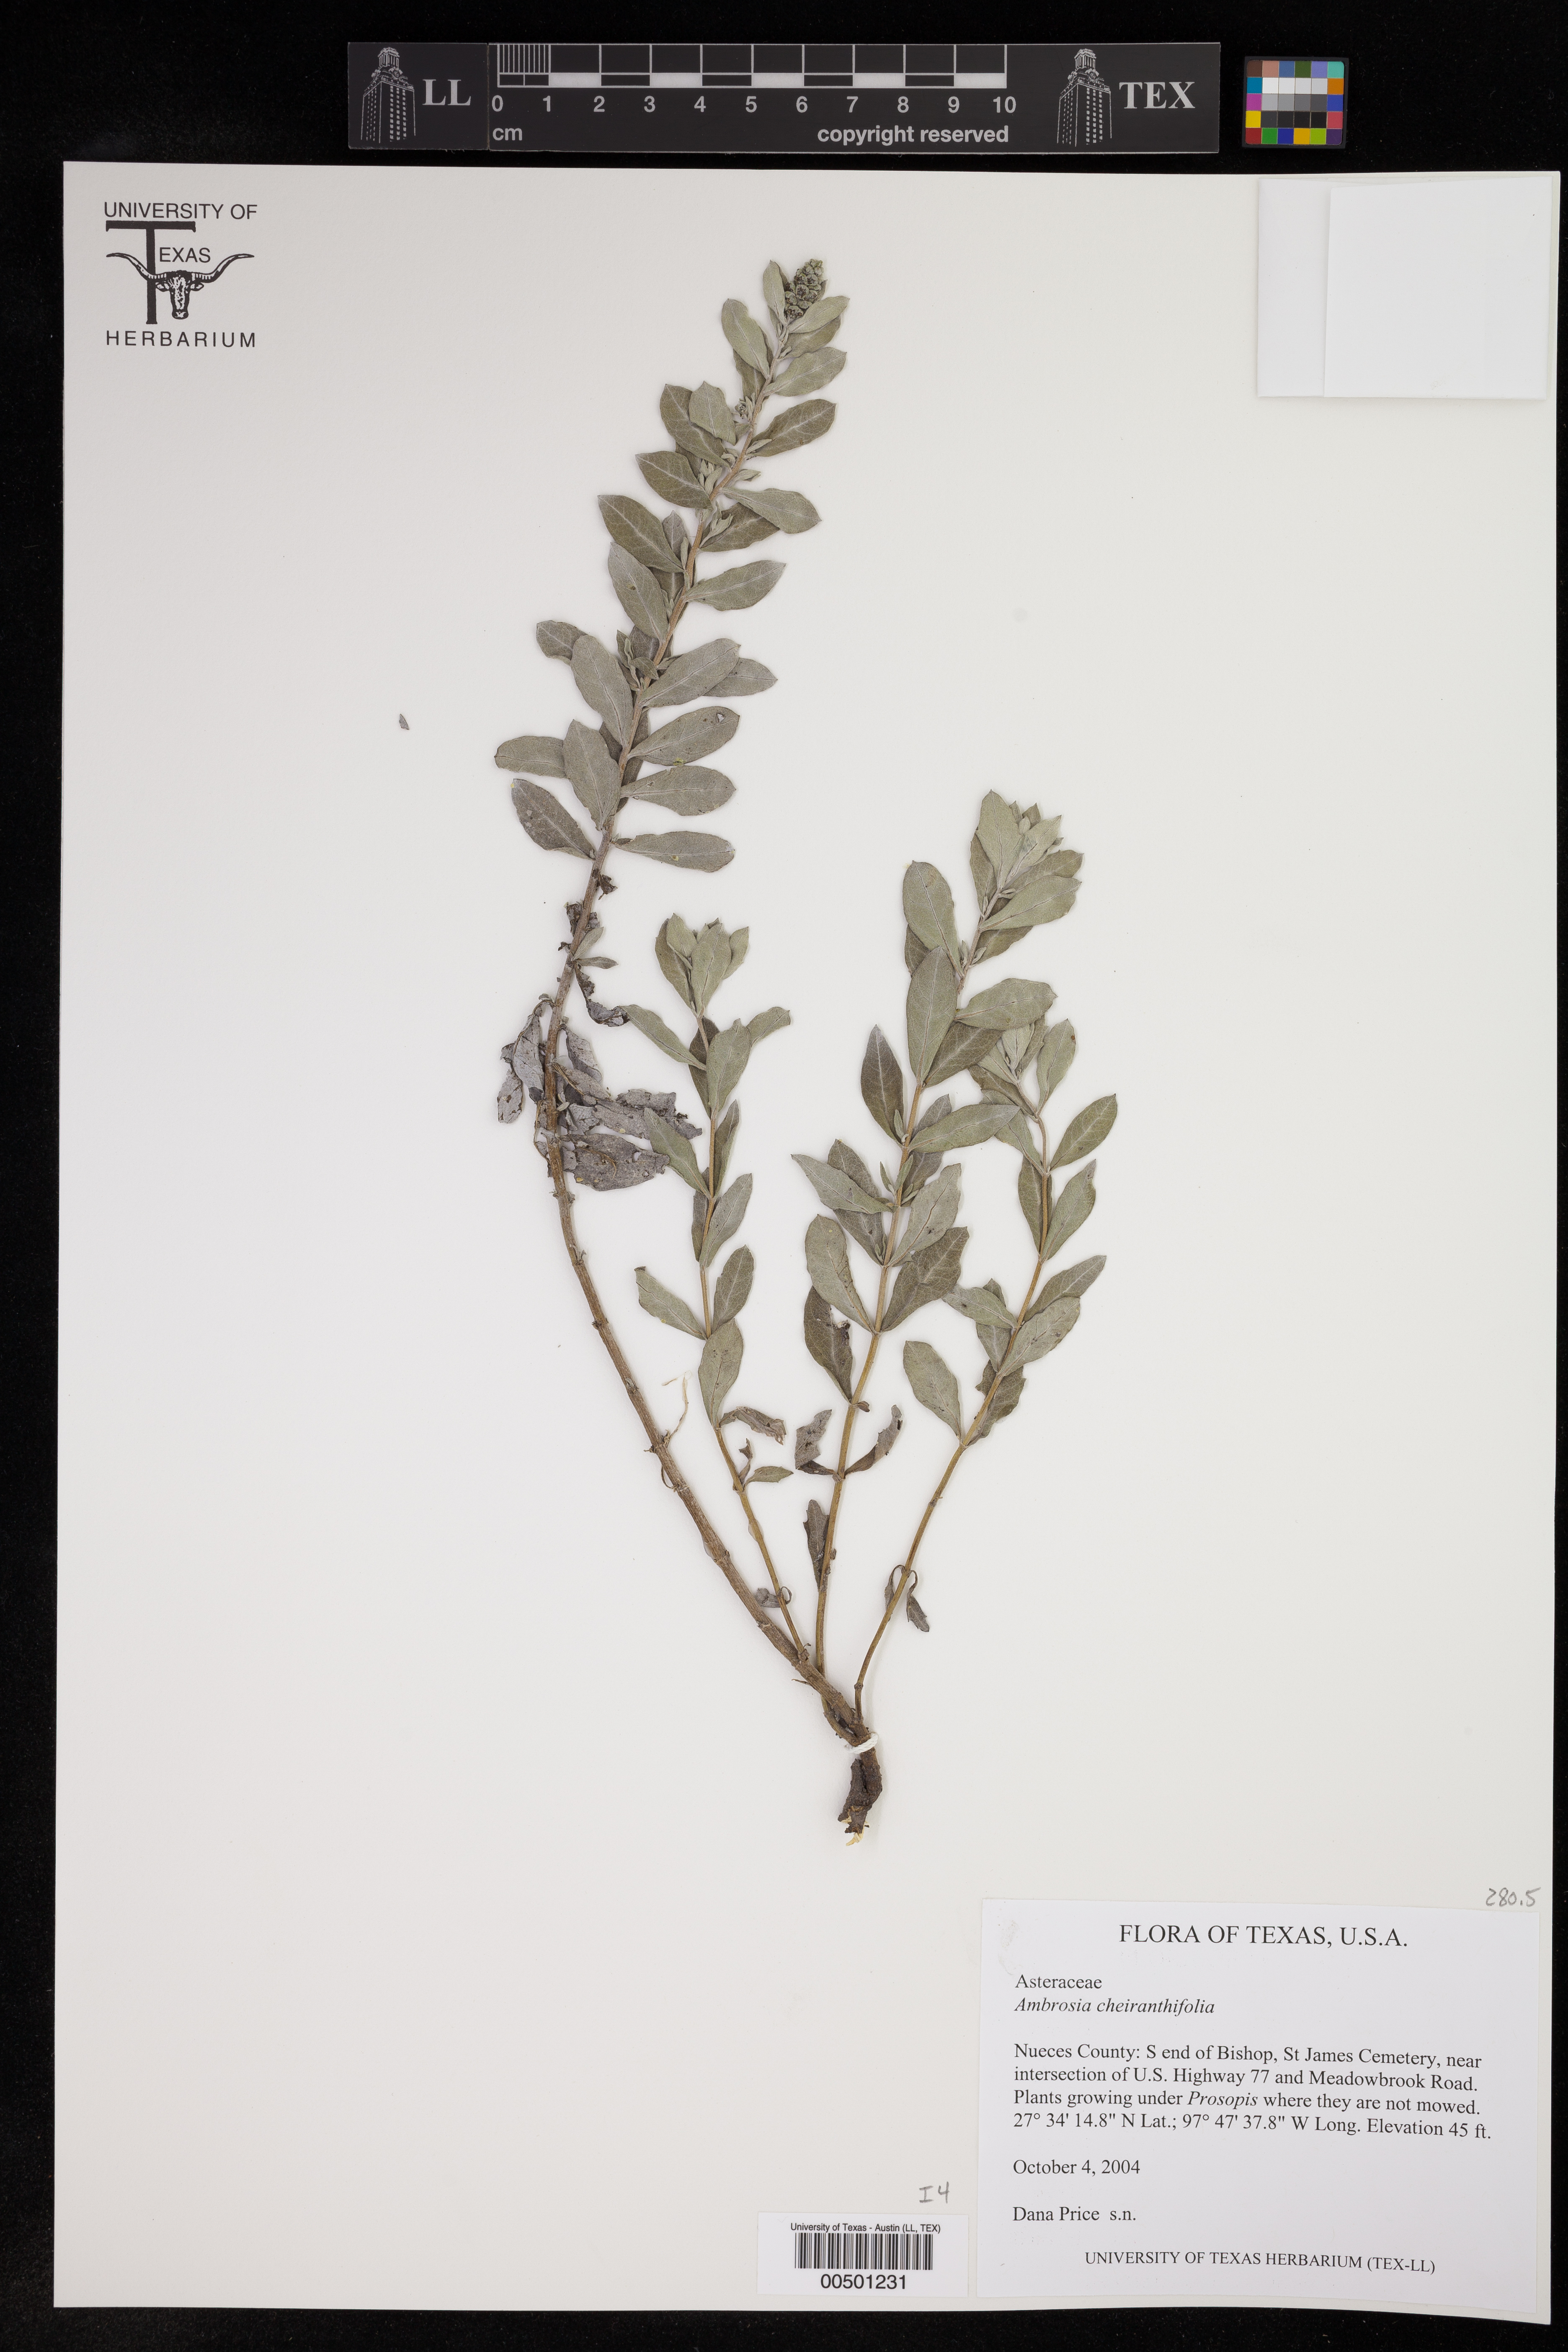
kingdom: Plantae
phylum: Tracheophyta
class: Magnoliopsida
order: Asterales
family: Asteraceae
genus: Ambrosia
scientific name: Ambrosia cheiranthifolia
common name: South texas ambrosia
